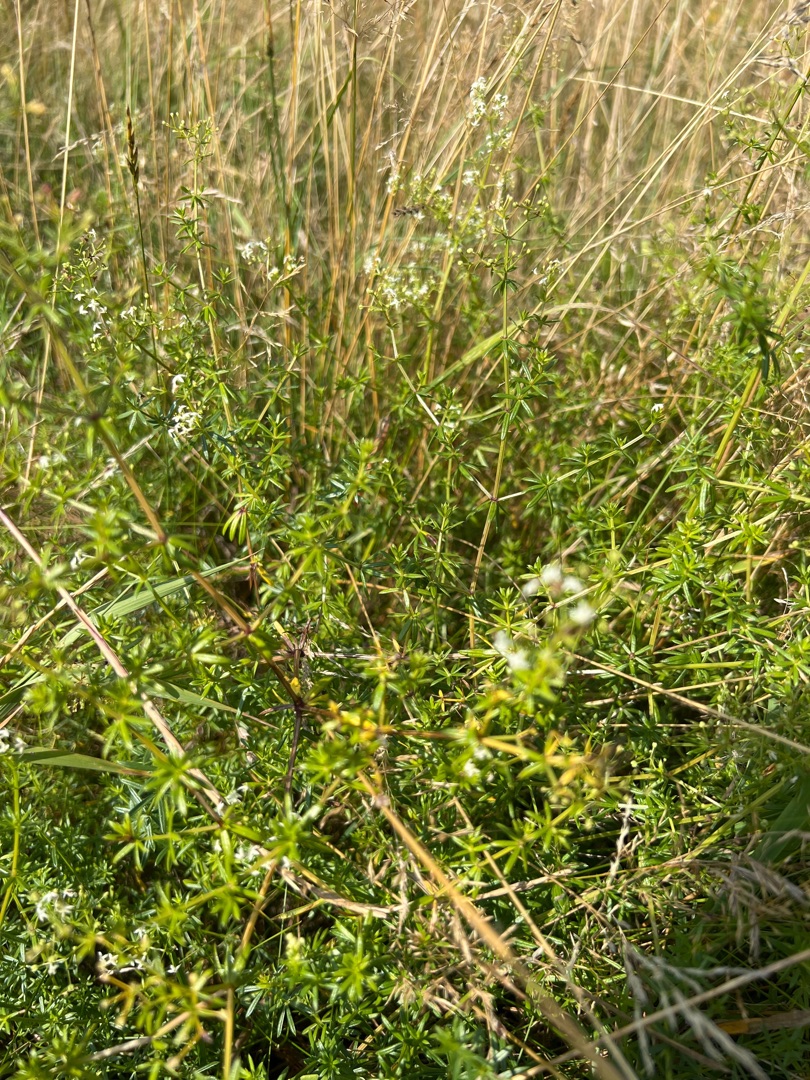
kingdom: Plantae
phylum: Tracheophyta
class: Magnoliopsida
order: Gentianales
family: Rubiaceae
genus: Galium
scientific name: Galium mollugo
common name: Hvid snerre
